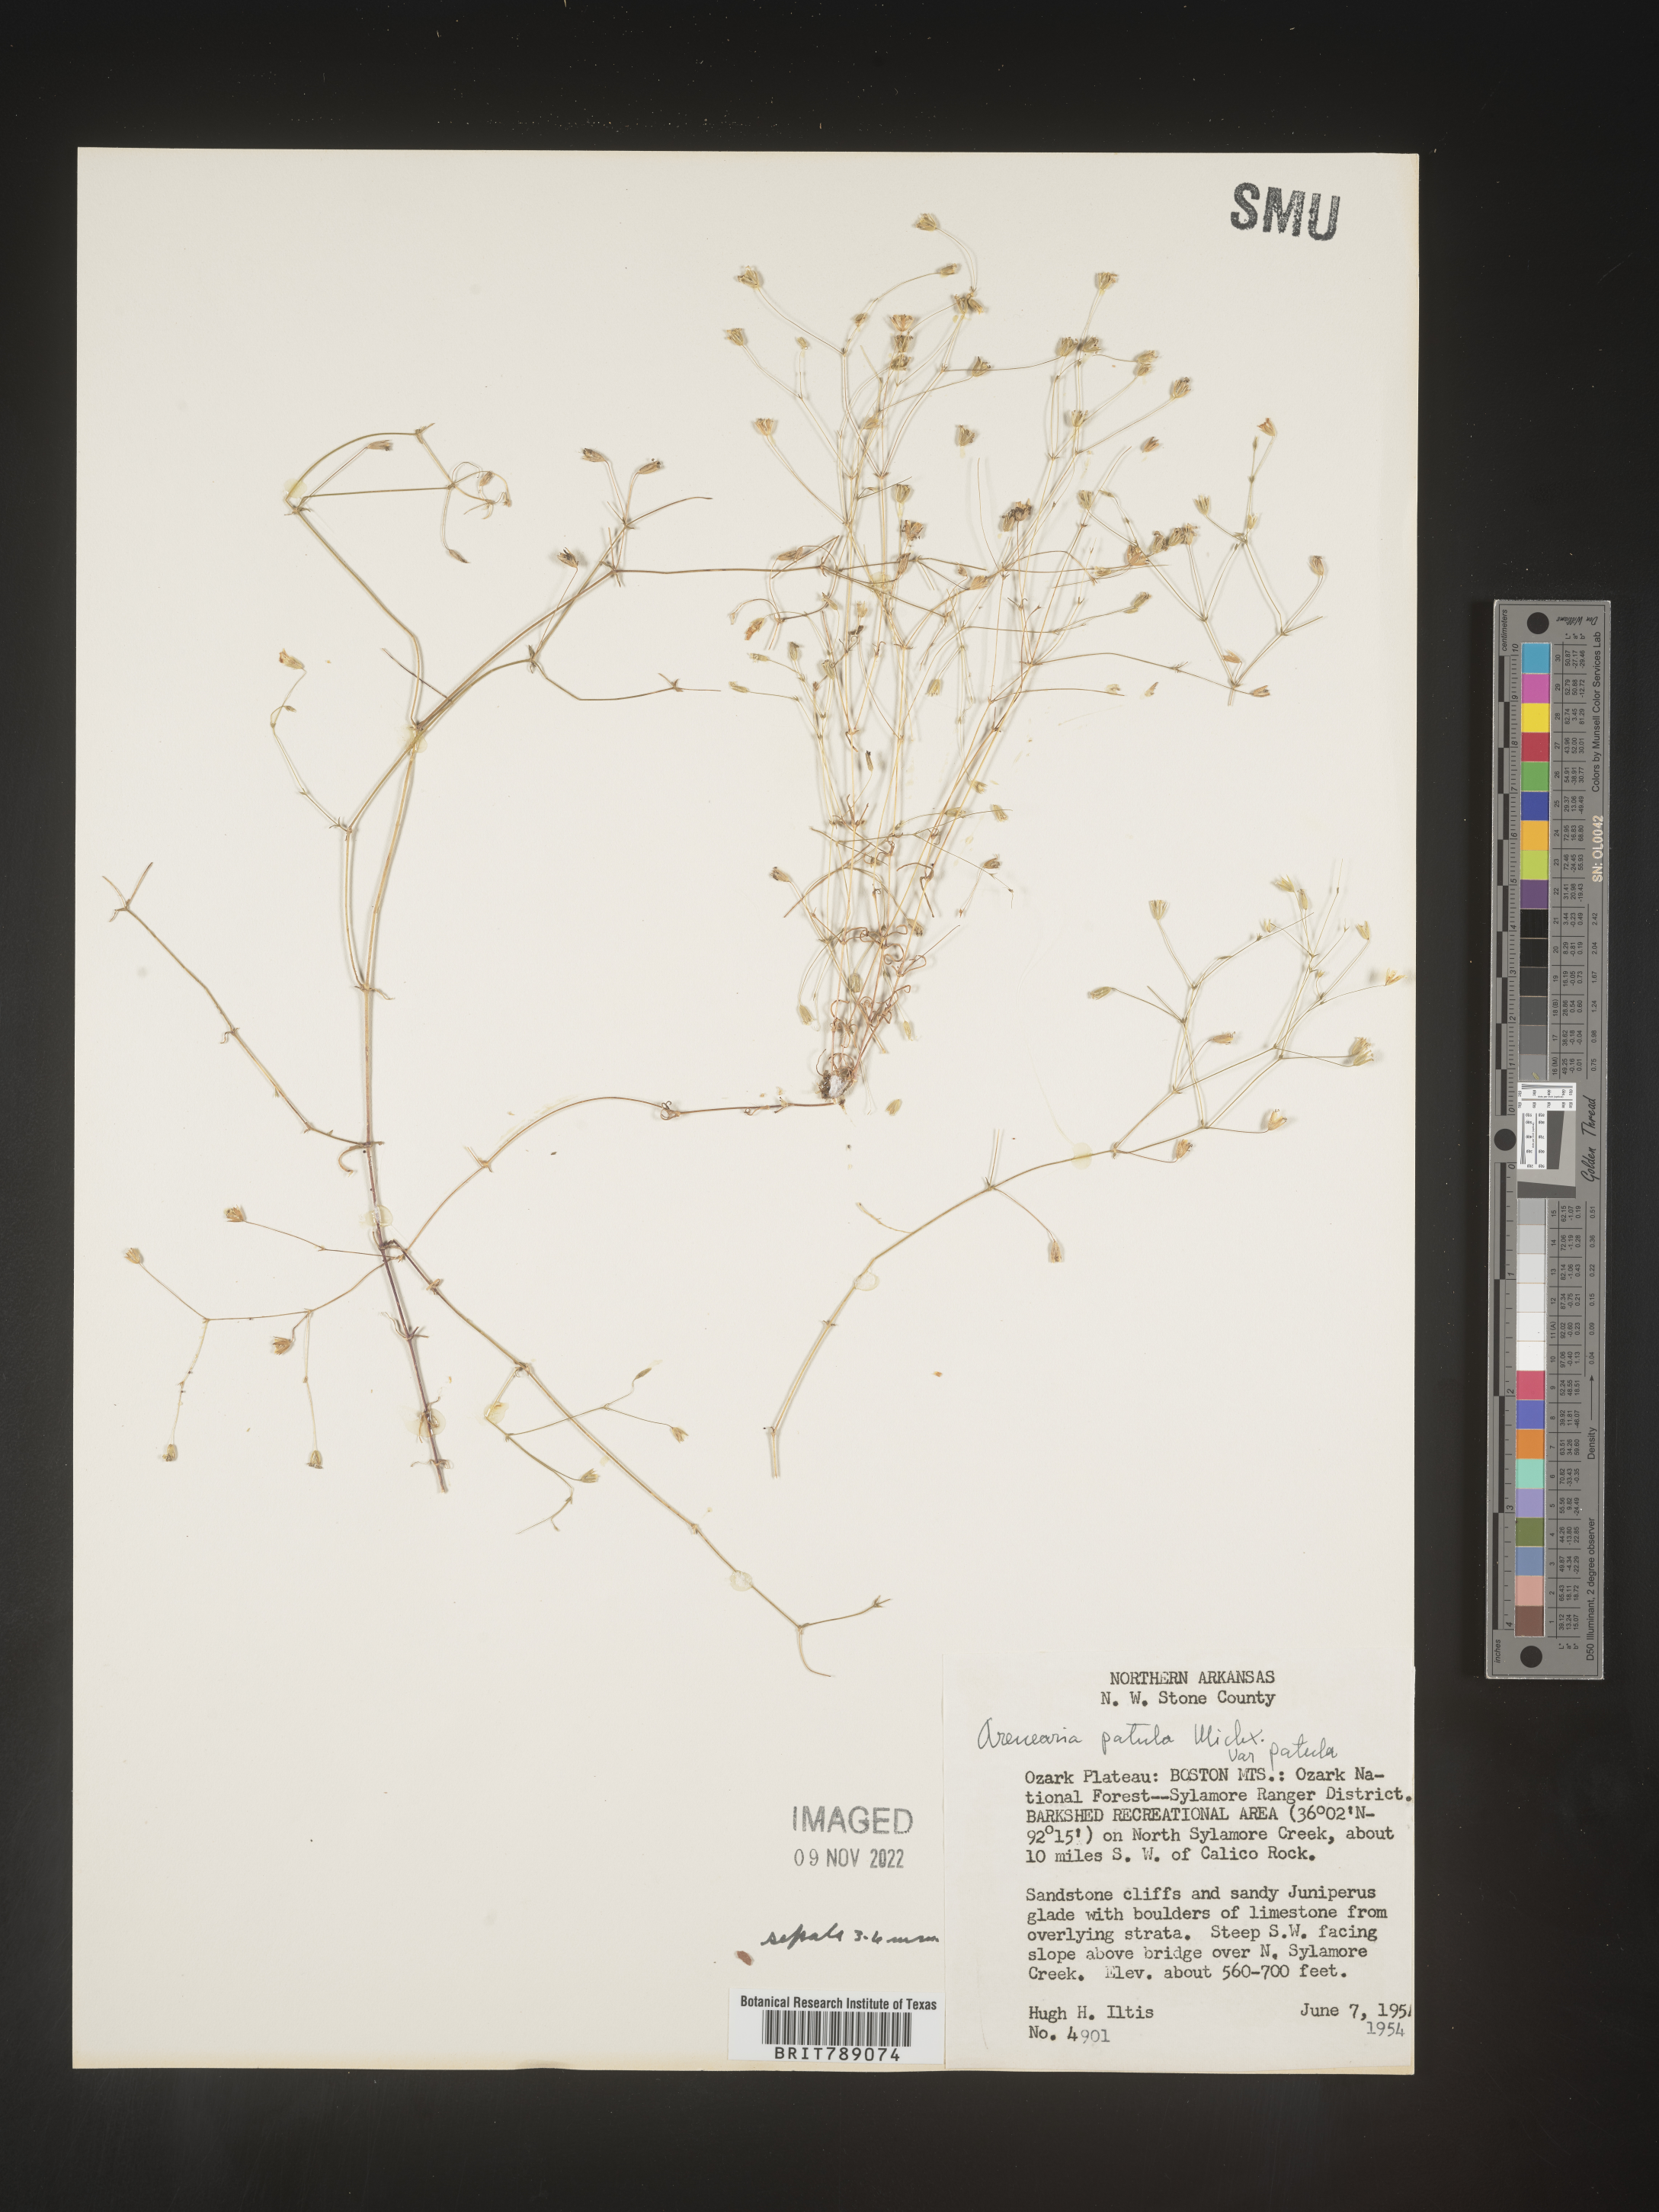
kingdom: Plantae
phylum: Tracheophyta
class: Magnoliopsida
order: Caryophyllales
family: Caryophyllaceae
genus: Mononeuria
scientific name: Mononeuria patula
